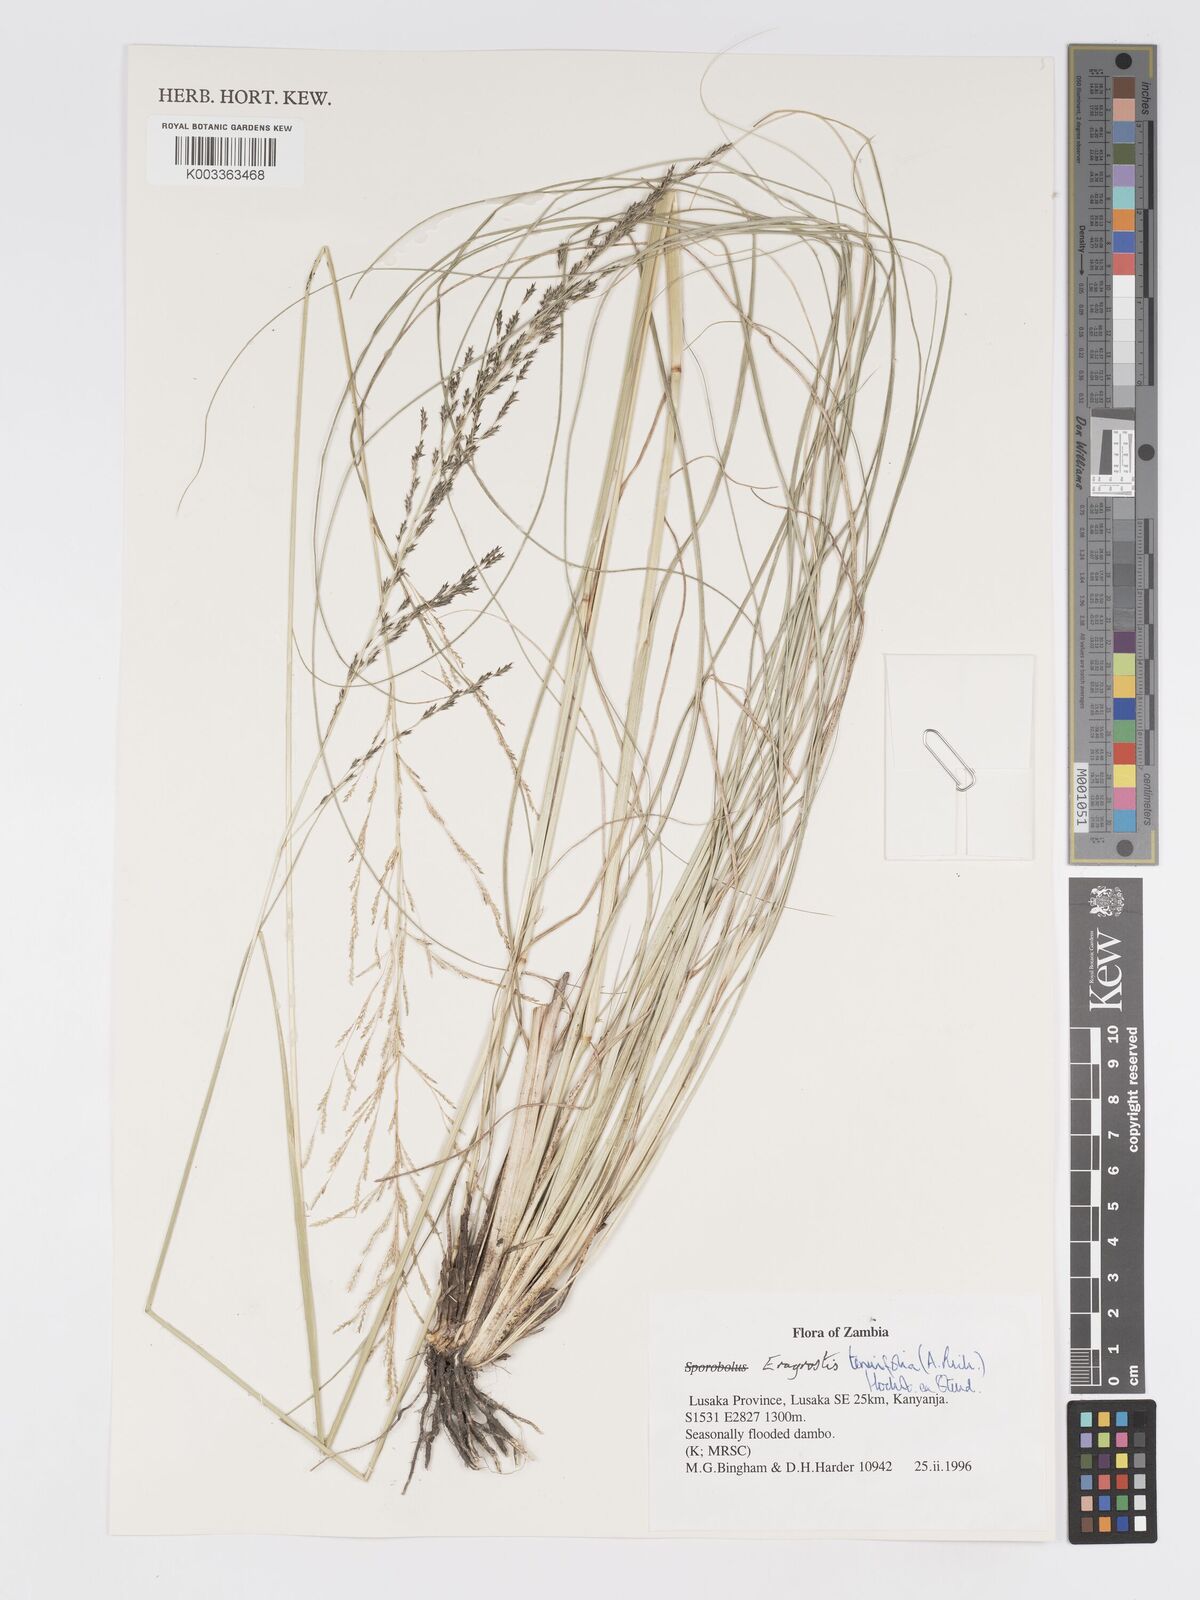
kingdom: Plantae
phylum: Tracheophyta
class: Liliopsida
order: Poales
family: Poaceae
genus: Eragrostis
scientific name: Eragrostis tenuifolia
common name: Elastic grass
